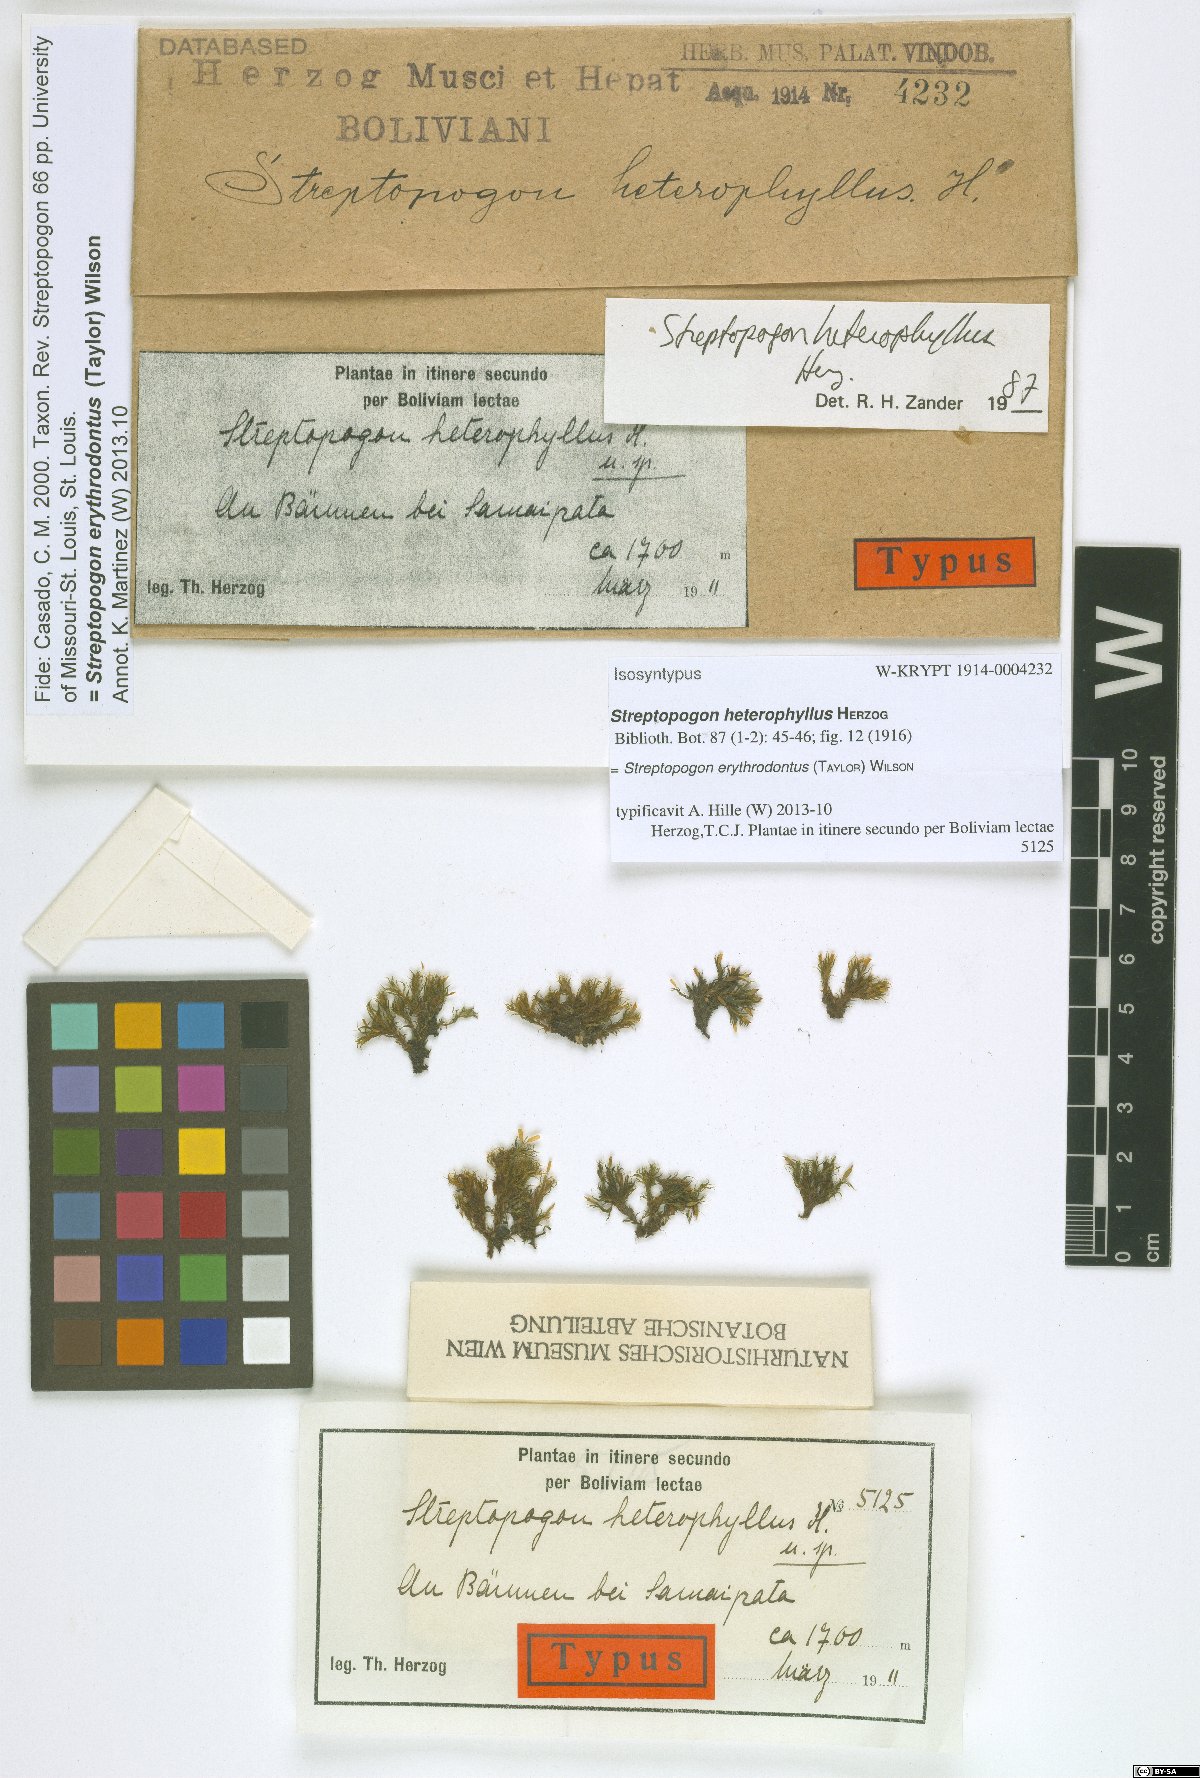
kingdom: Plantae
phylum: Bryophyta
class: Bryopsida
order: Pottiales
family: Pottiaceae
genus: Streptopogon
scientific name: Streptopogon erythrodontus
